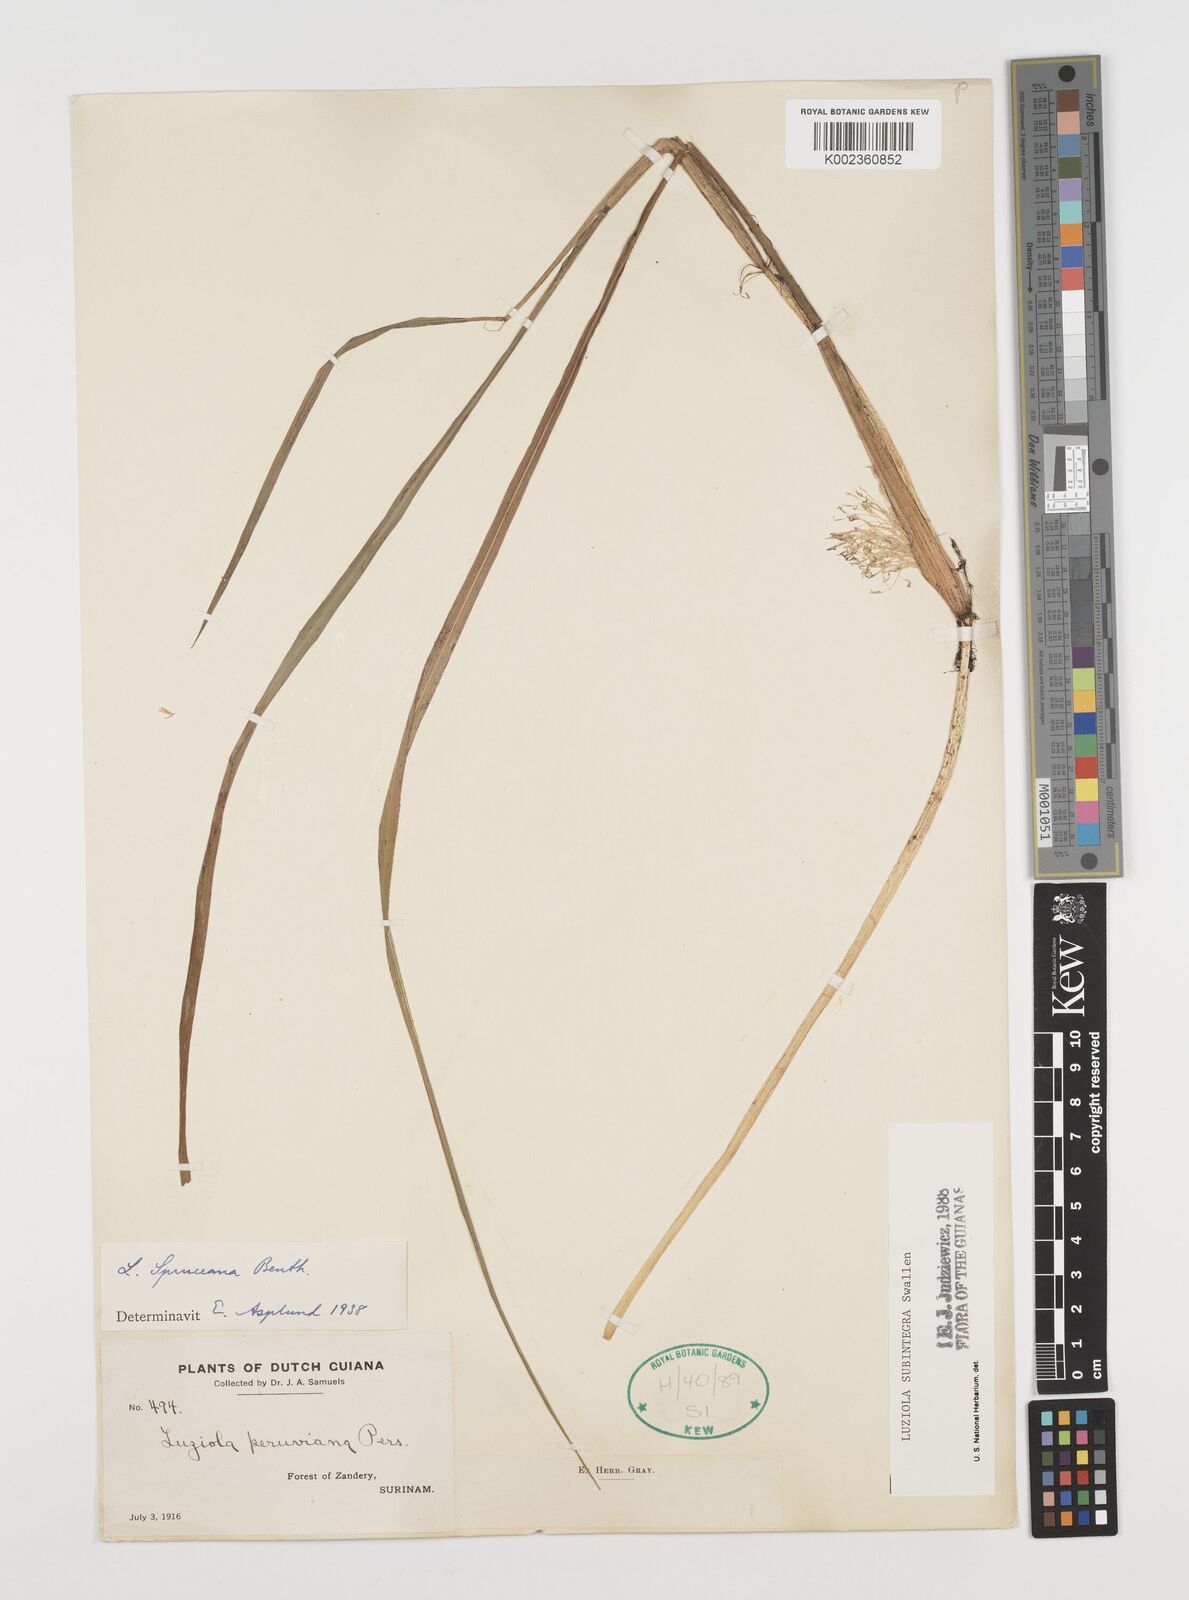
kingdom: Plantae
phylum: Tracheophyta
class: Liliopsida
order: Poales
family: Poaceae
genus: Luziola
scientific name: Luziola subintegra
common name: Large watergrass
